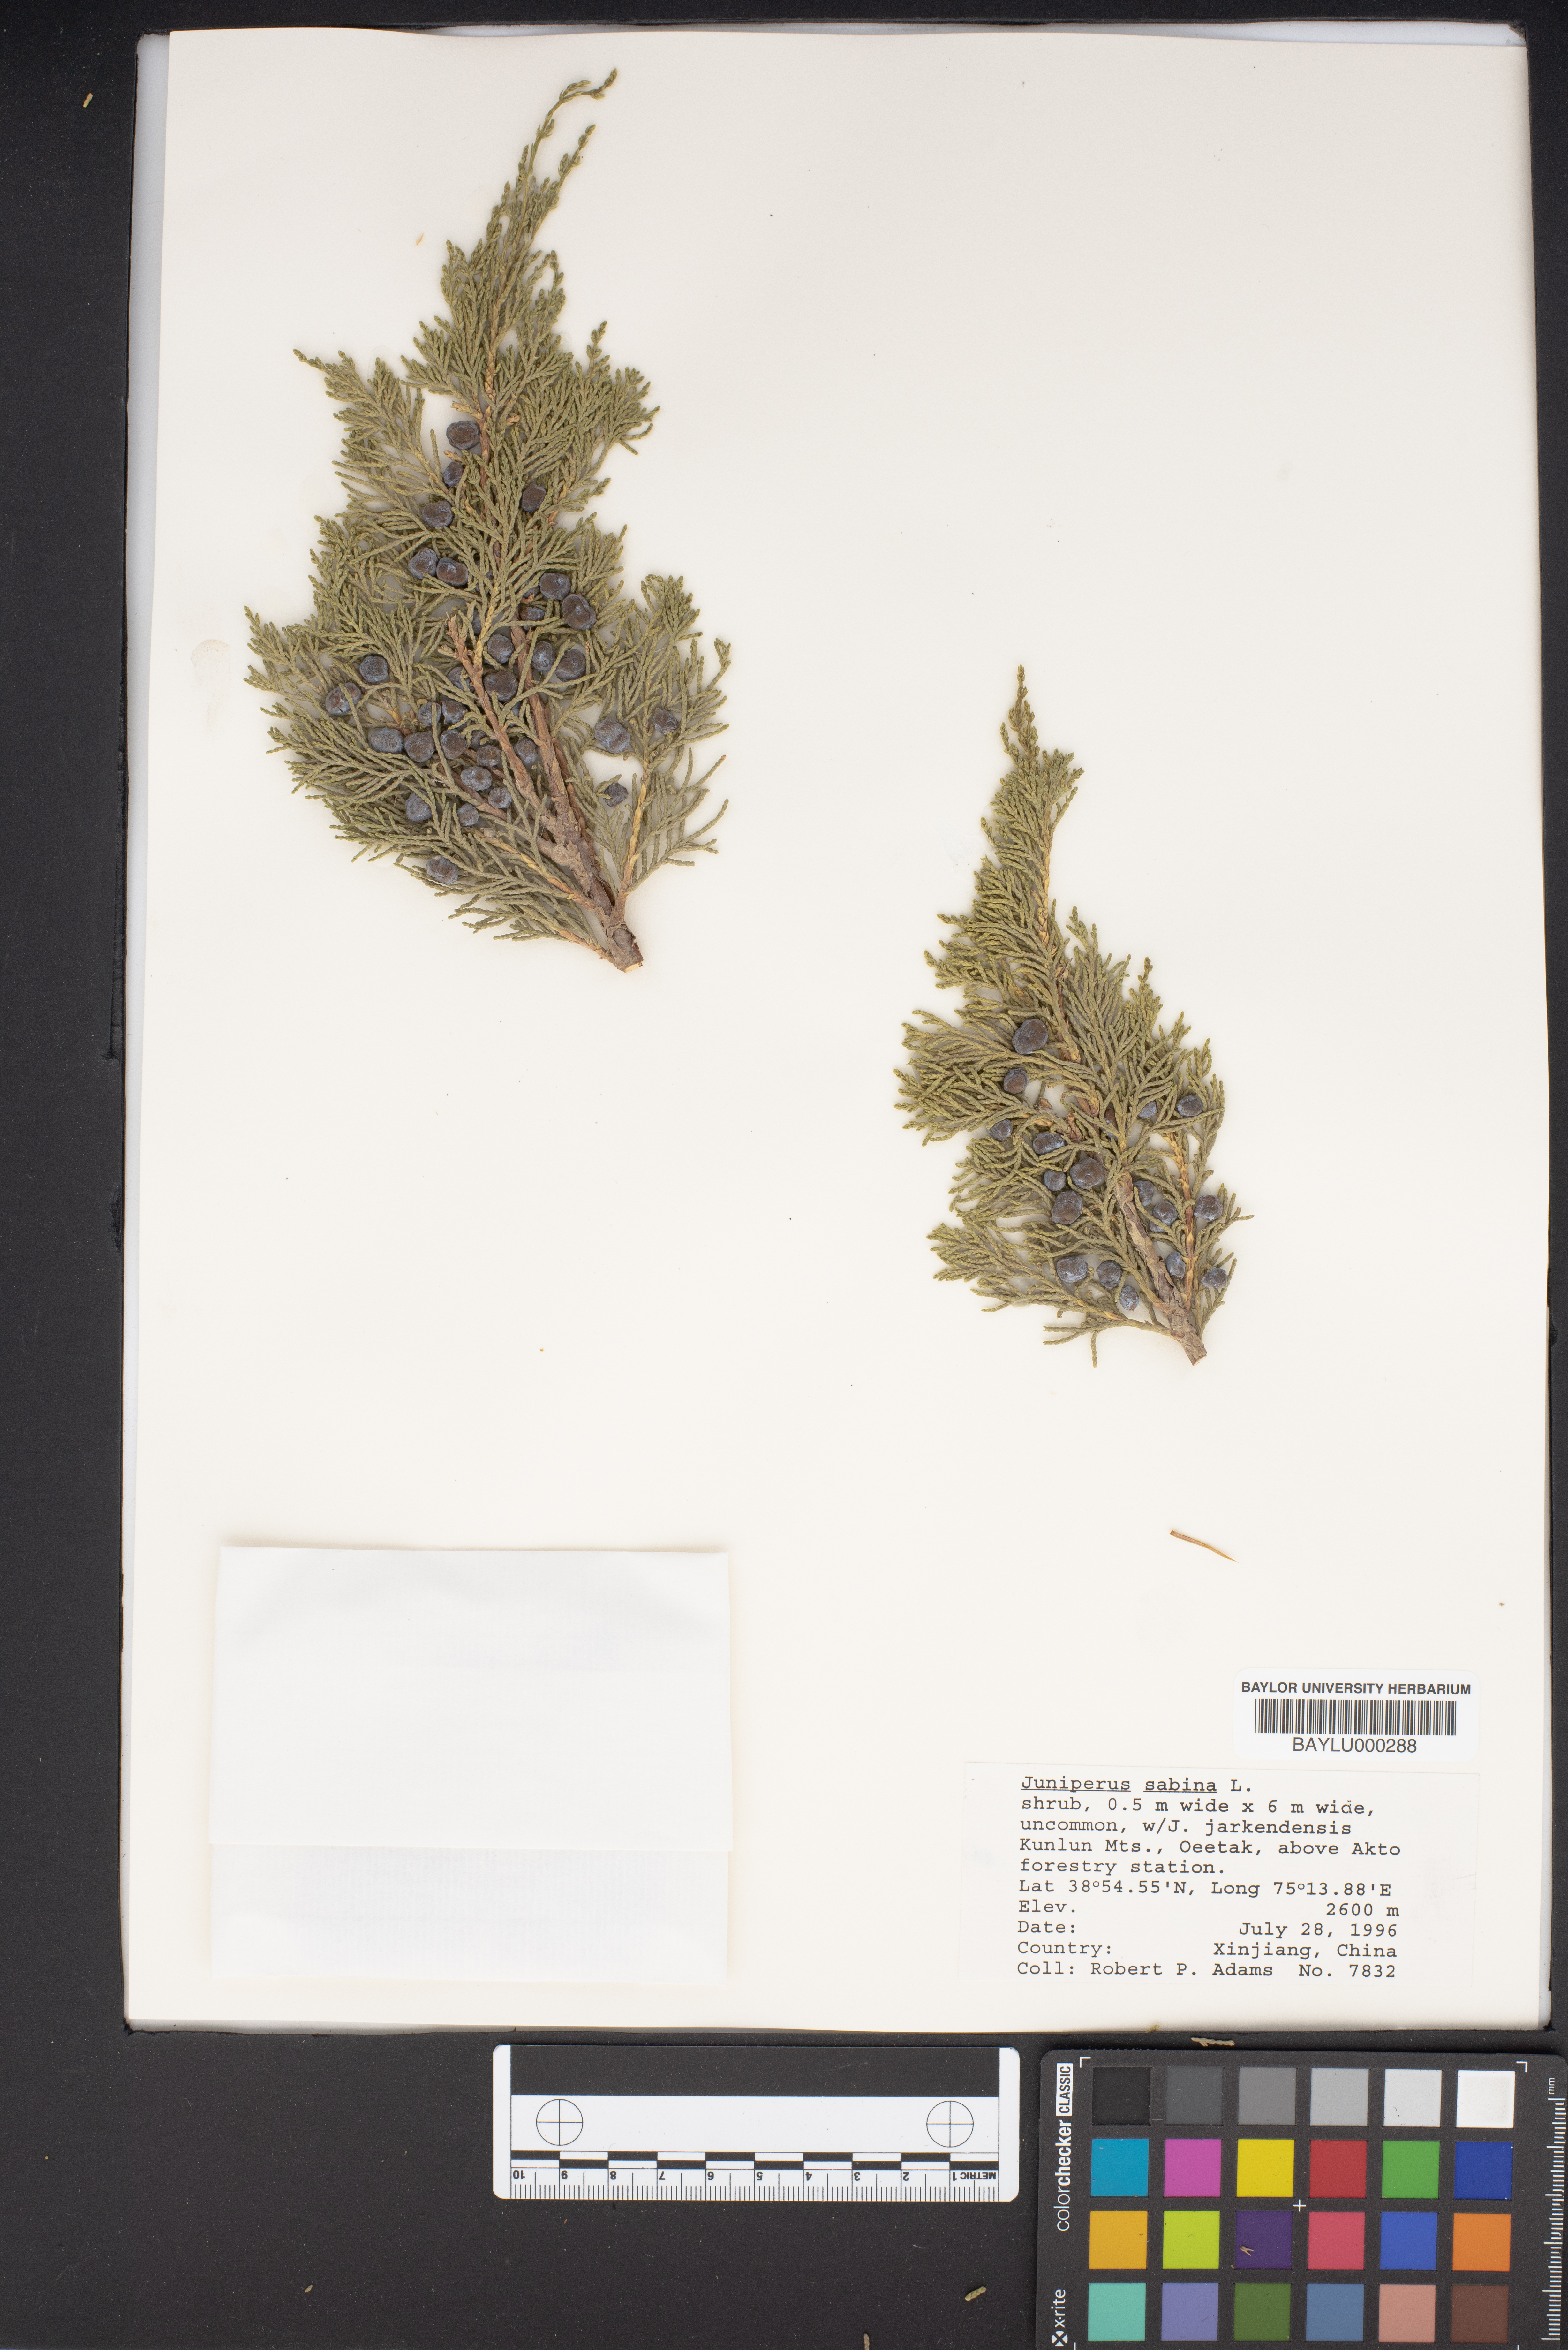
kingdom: Plantae
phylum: Tracheophyta
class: Pinopsida
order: Pinales
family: Cupressaceae
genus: Juniperus
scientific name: Juniperus sabina
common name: Savin
